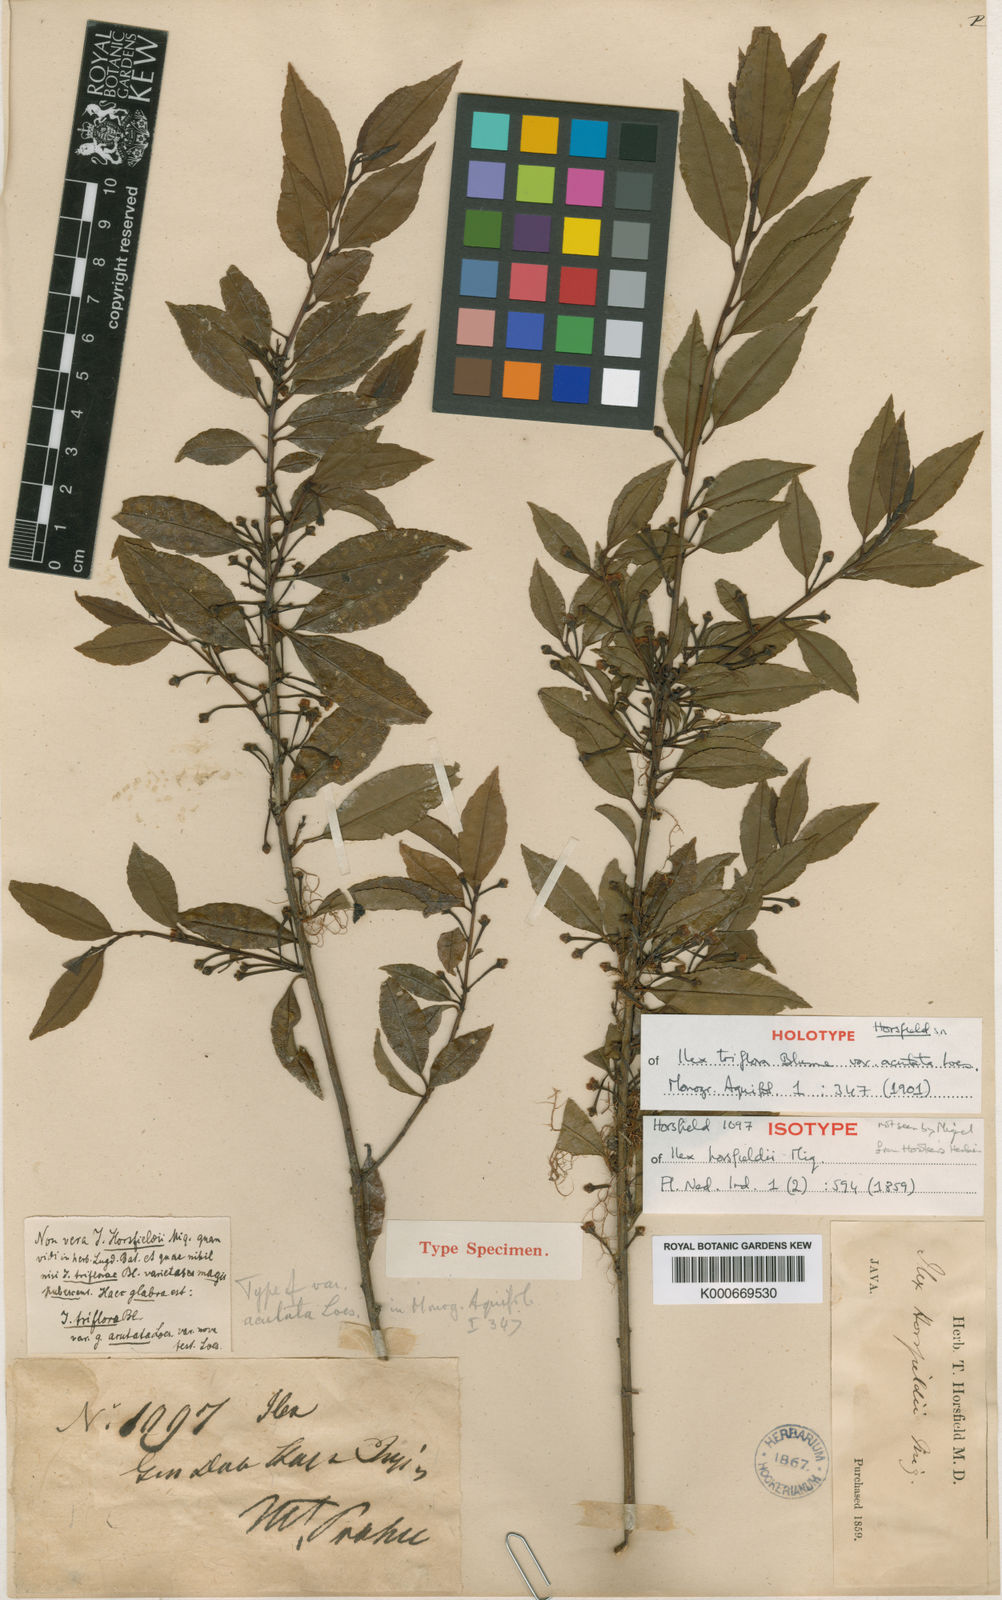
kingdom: Plantae
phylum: Tracheophyta
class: Magnoliopsida
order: Aquifoliales
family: Aquifoliaceae
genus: Ilex
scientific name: Ilex triflora
